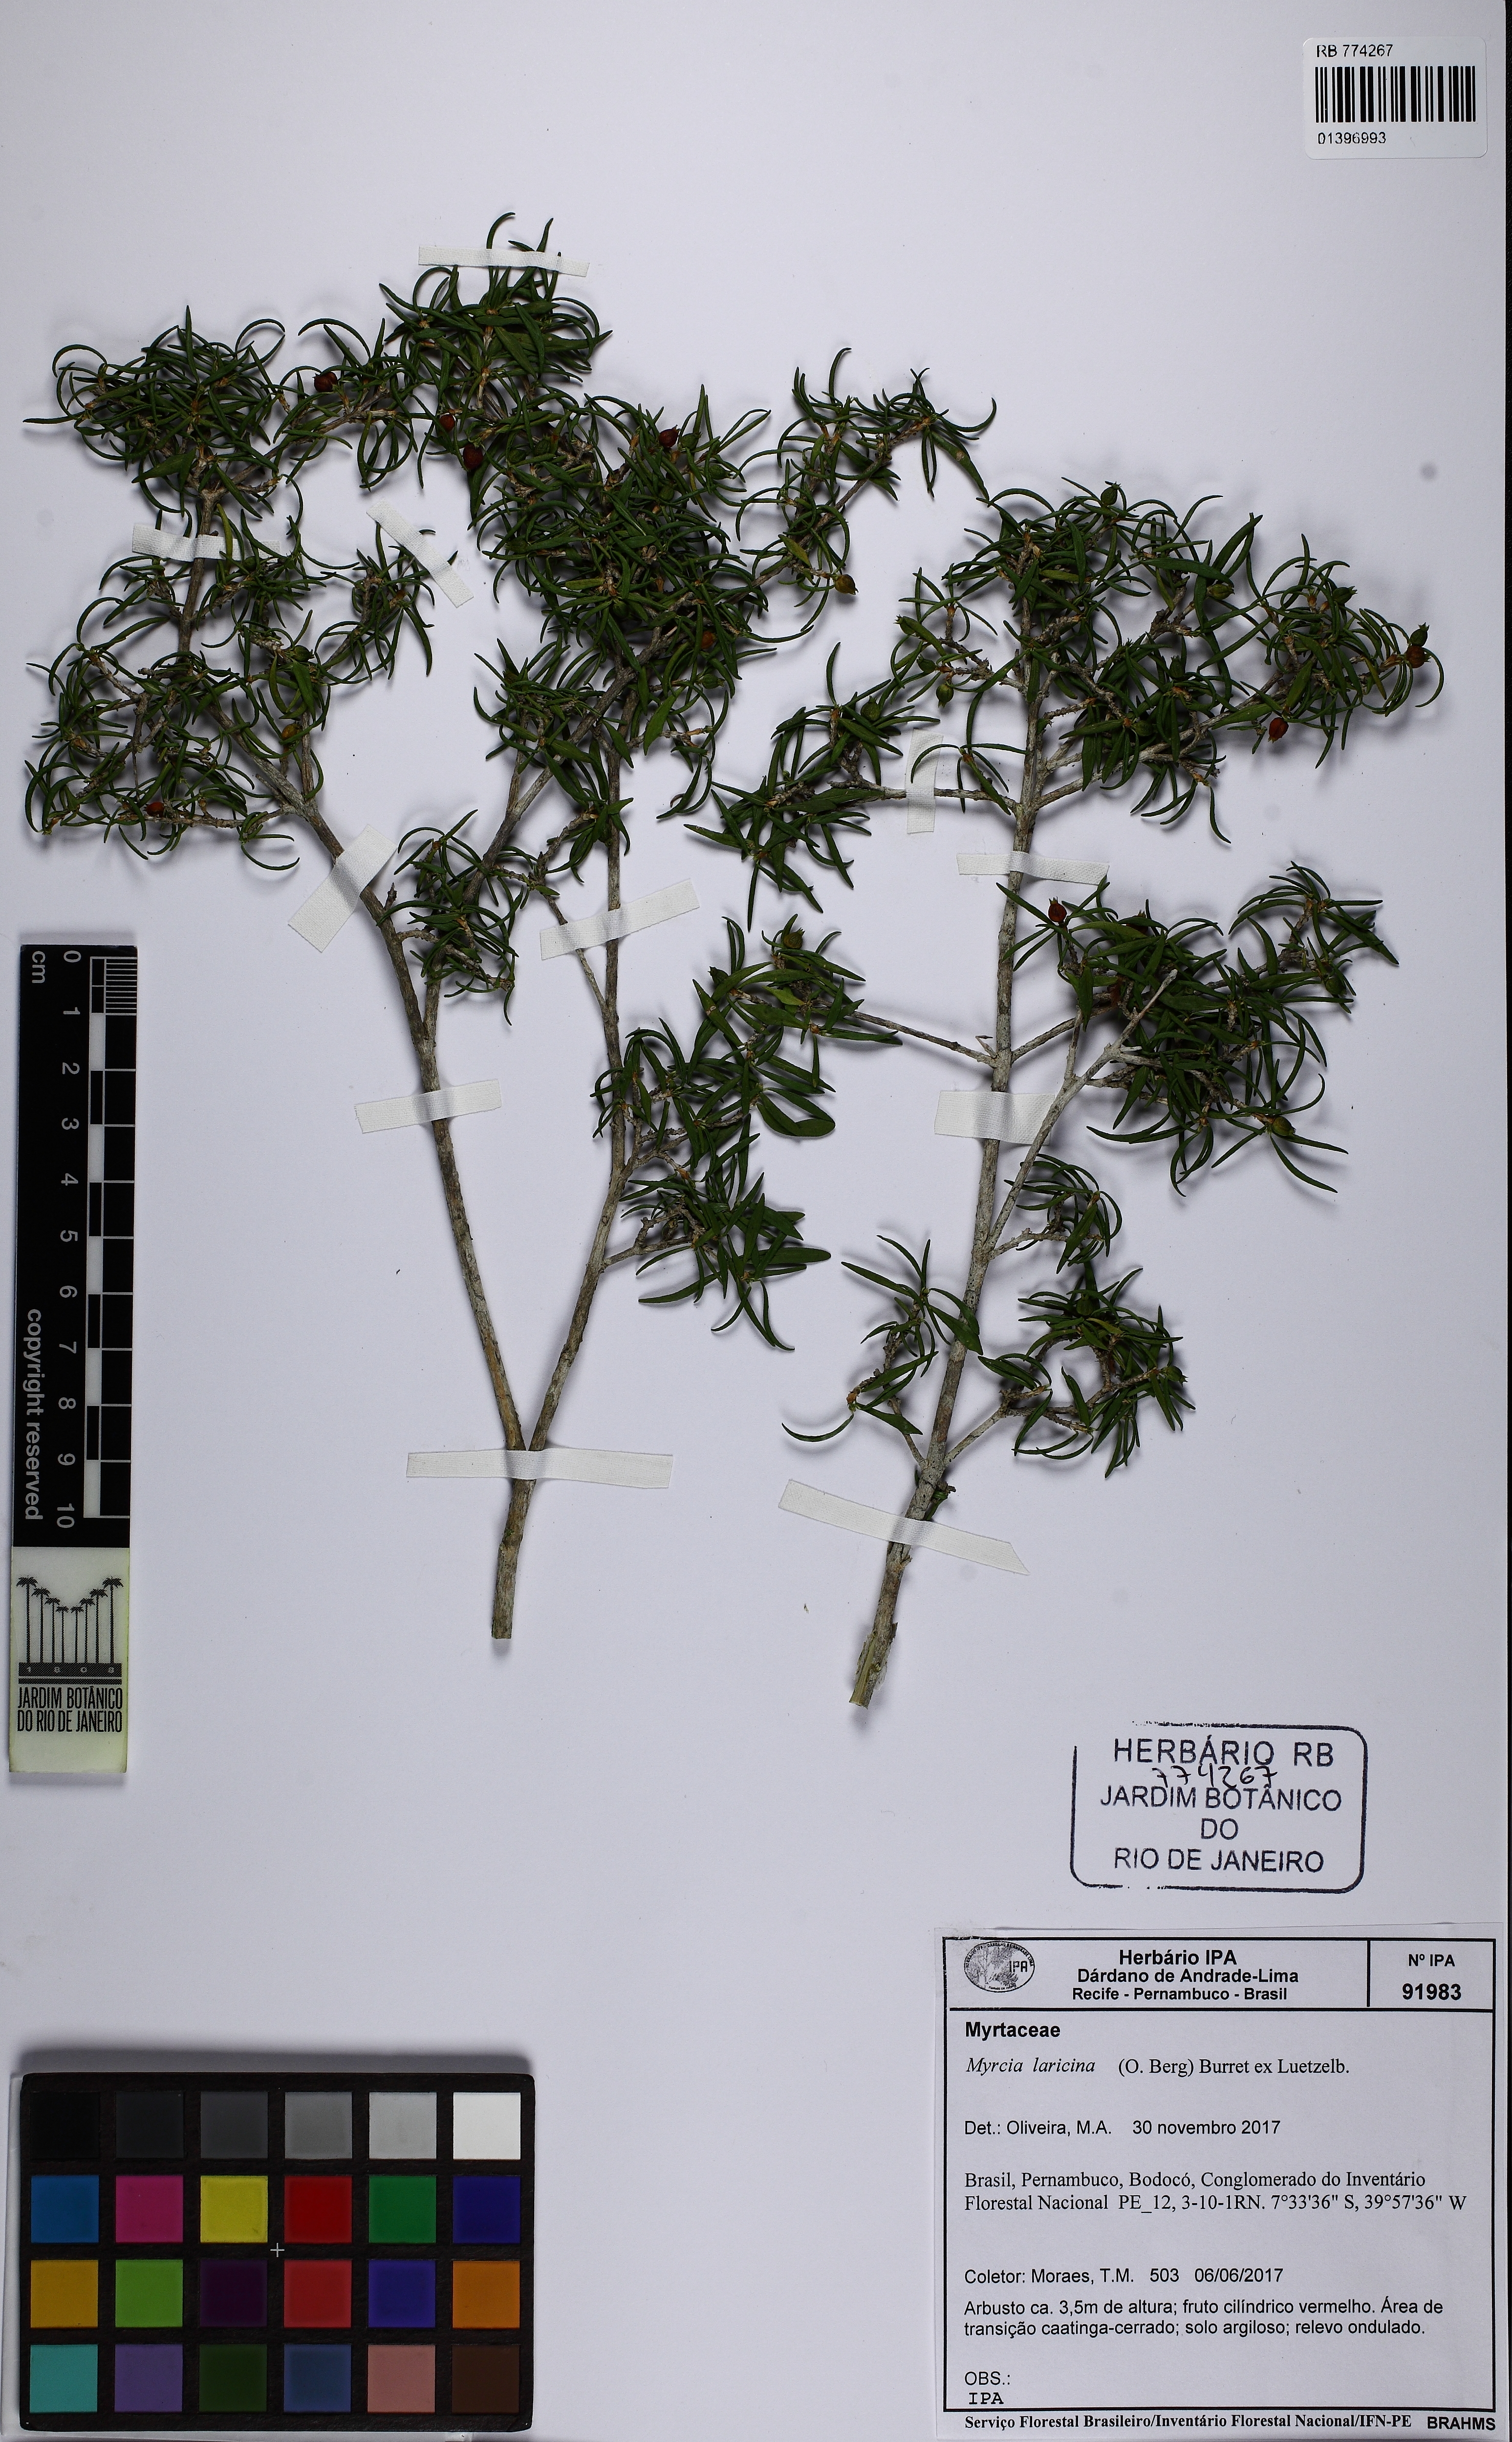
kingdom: Plantae
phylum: Tracheophyta
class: Magnoliopsida
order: Myrtales
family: Myrtaceae
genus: Myrcia
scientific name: Myrcia laricina
